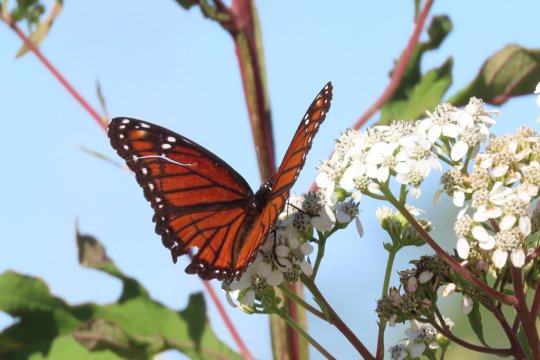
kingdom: Animalia
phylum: Arthropoda
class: Insecta
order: Lepidoptera
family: Nymphalidae
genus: Limenitis
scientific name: Limenitis archippus
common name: Viceroy
